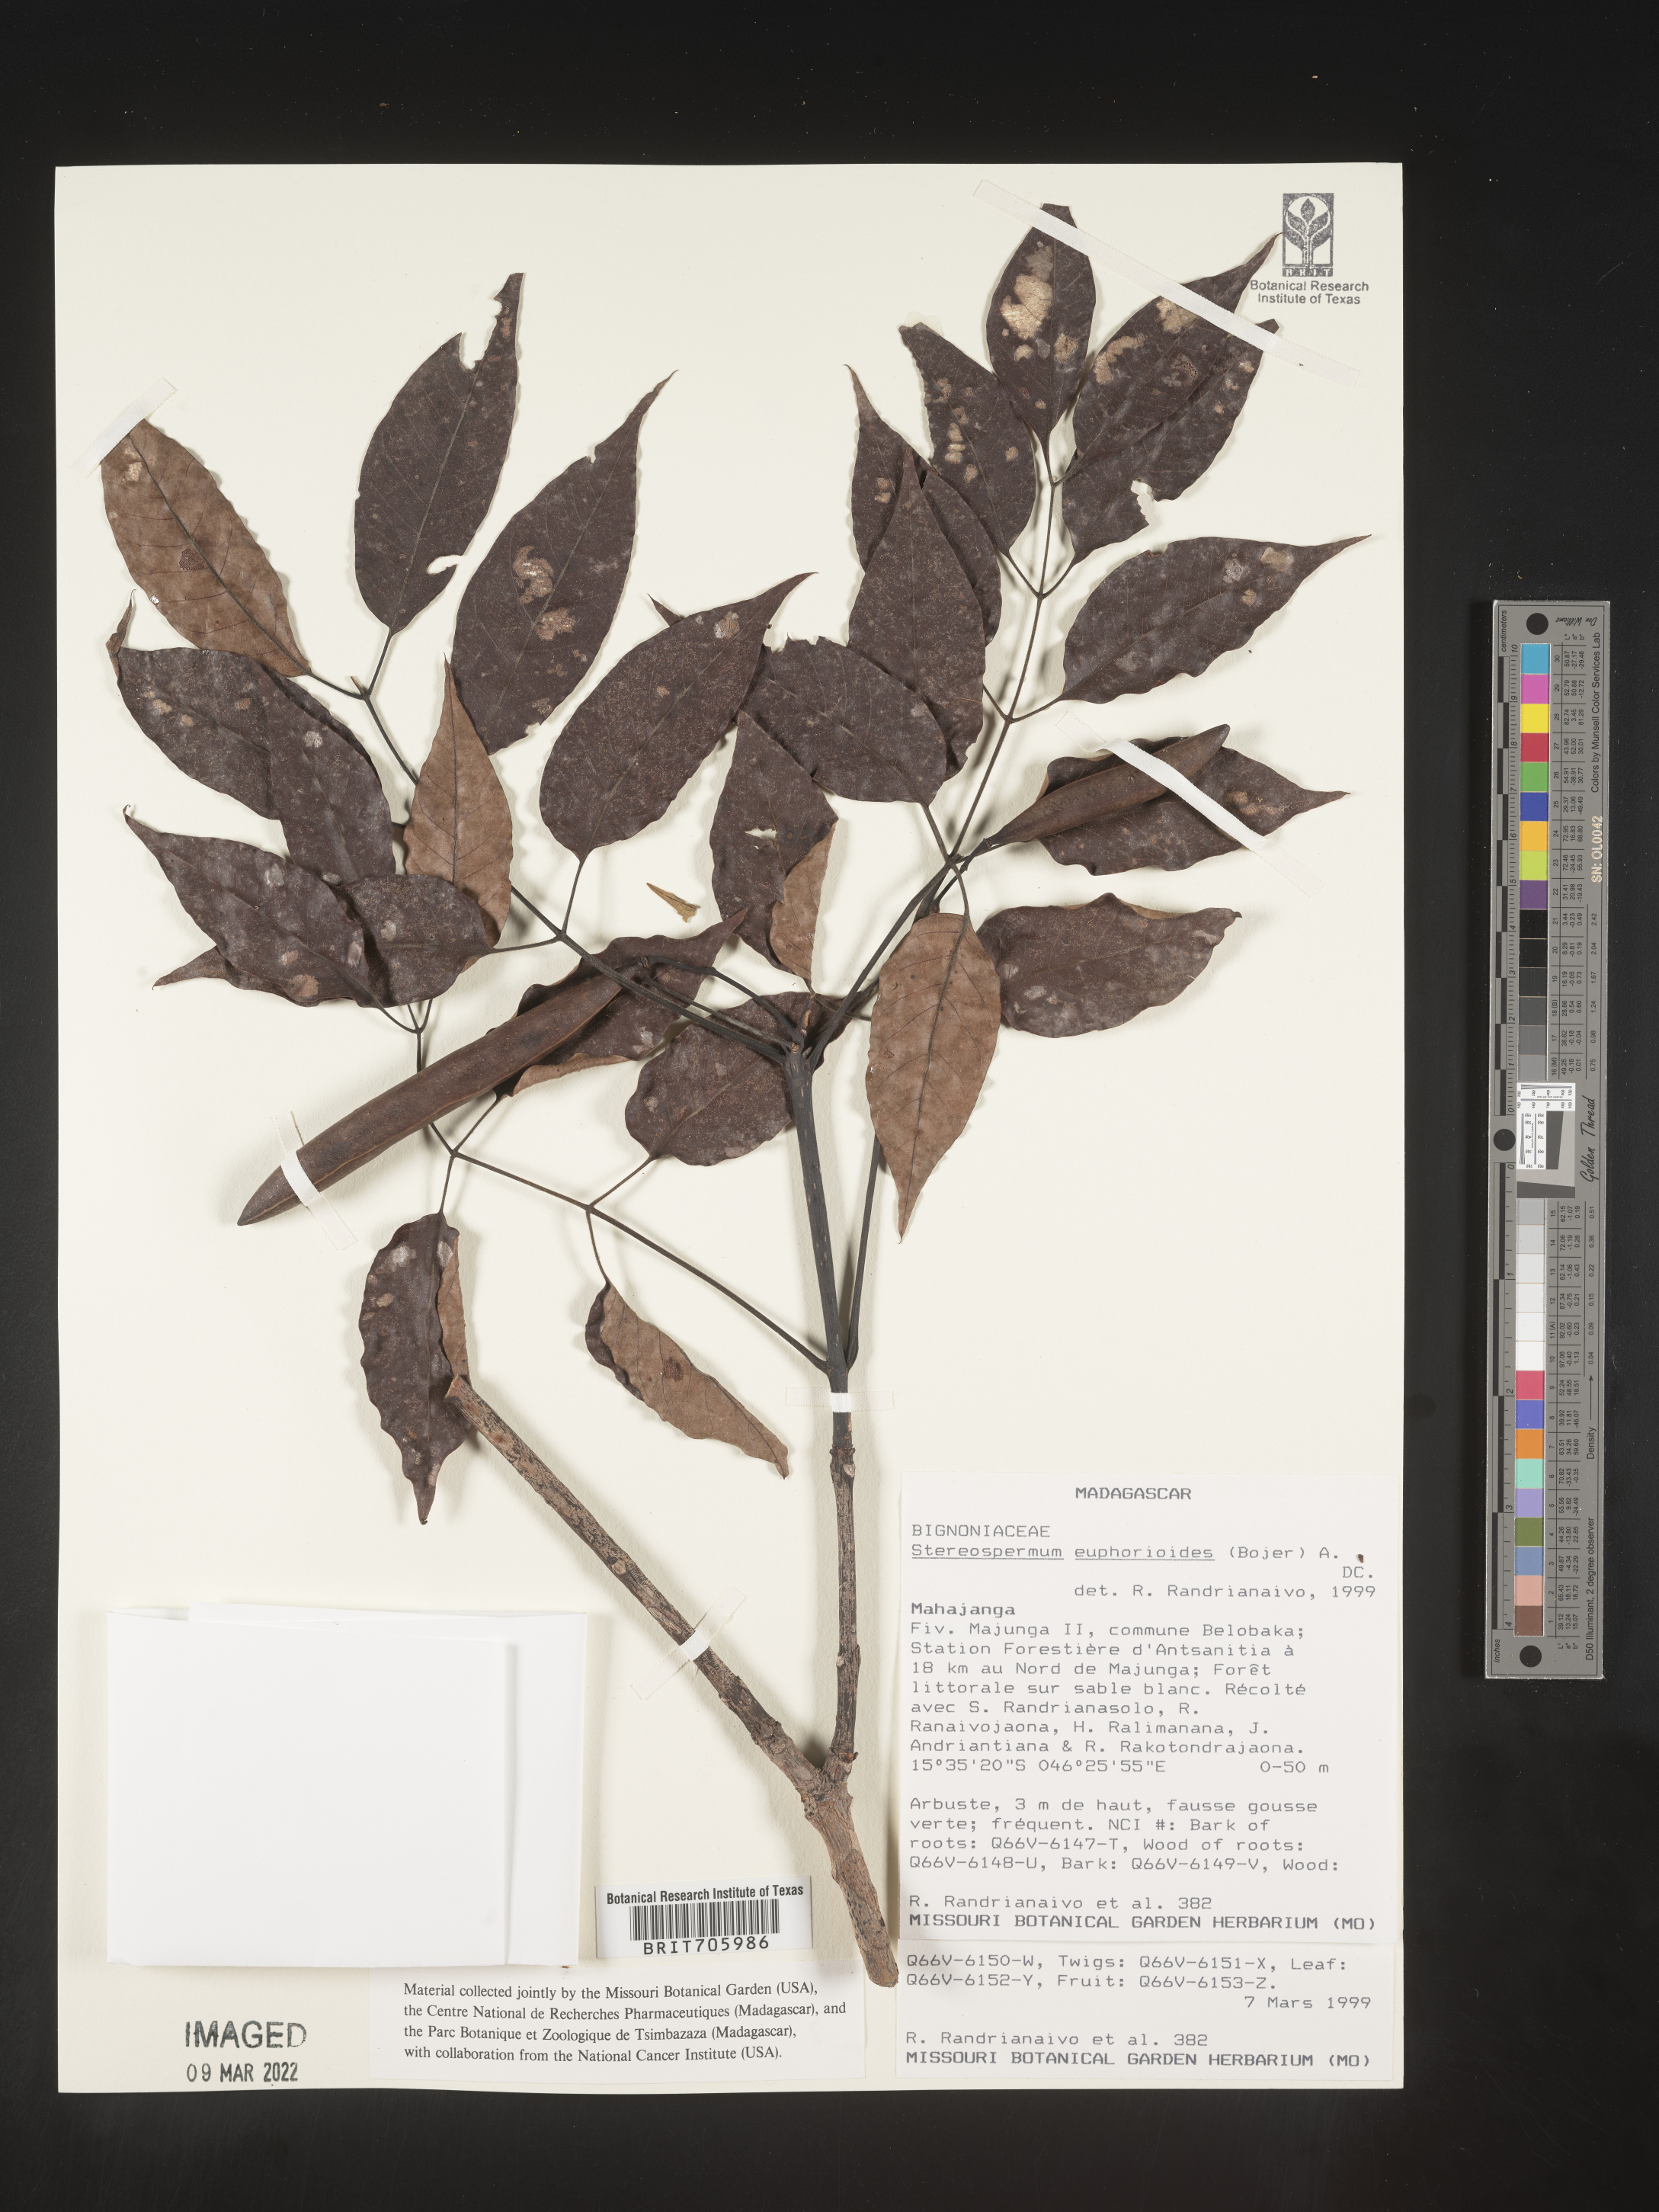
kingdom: Plantae
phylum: Tracheophyta
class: Magnoliopsida
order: Lamiales
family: Bignoniaceae
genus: Stereospermum
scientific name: Stereospermum
